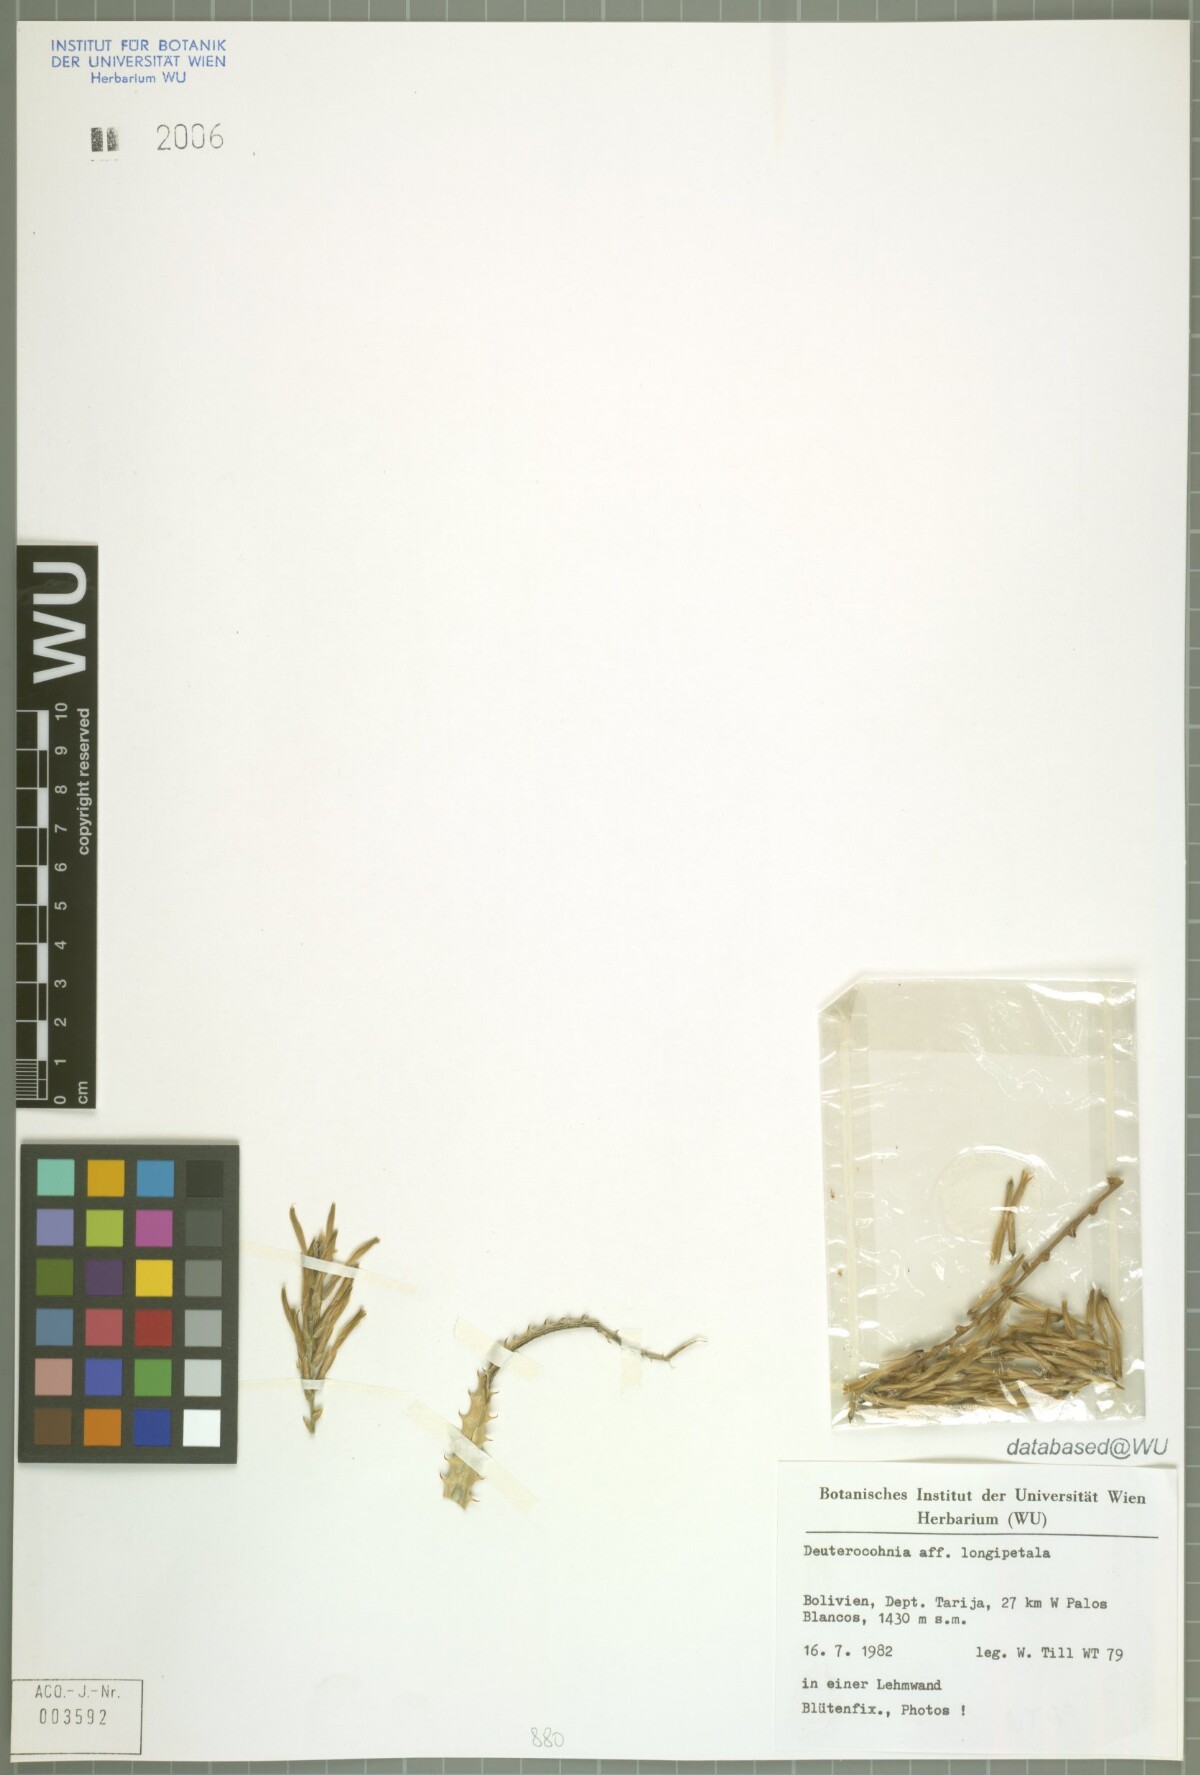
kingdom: Plantae
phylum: Tracheophyta
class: Liliopsida
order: Poales
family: Bromeliaceae
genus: Deuterocohnia
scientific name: Deuterocohnia longipetala
